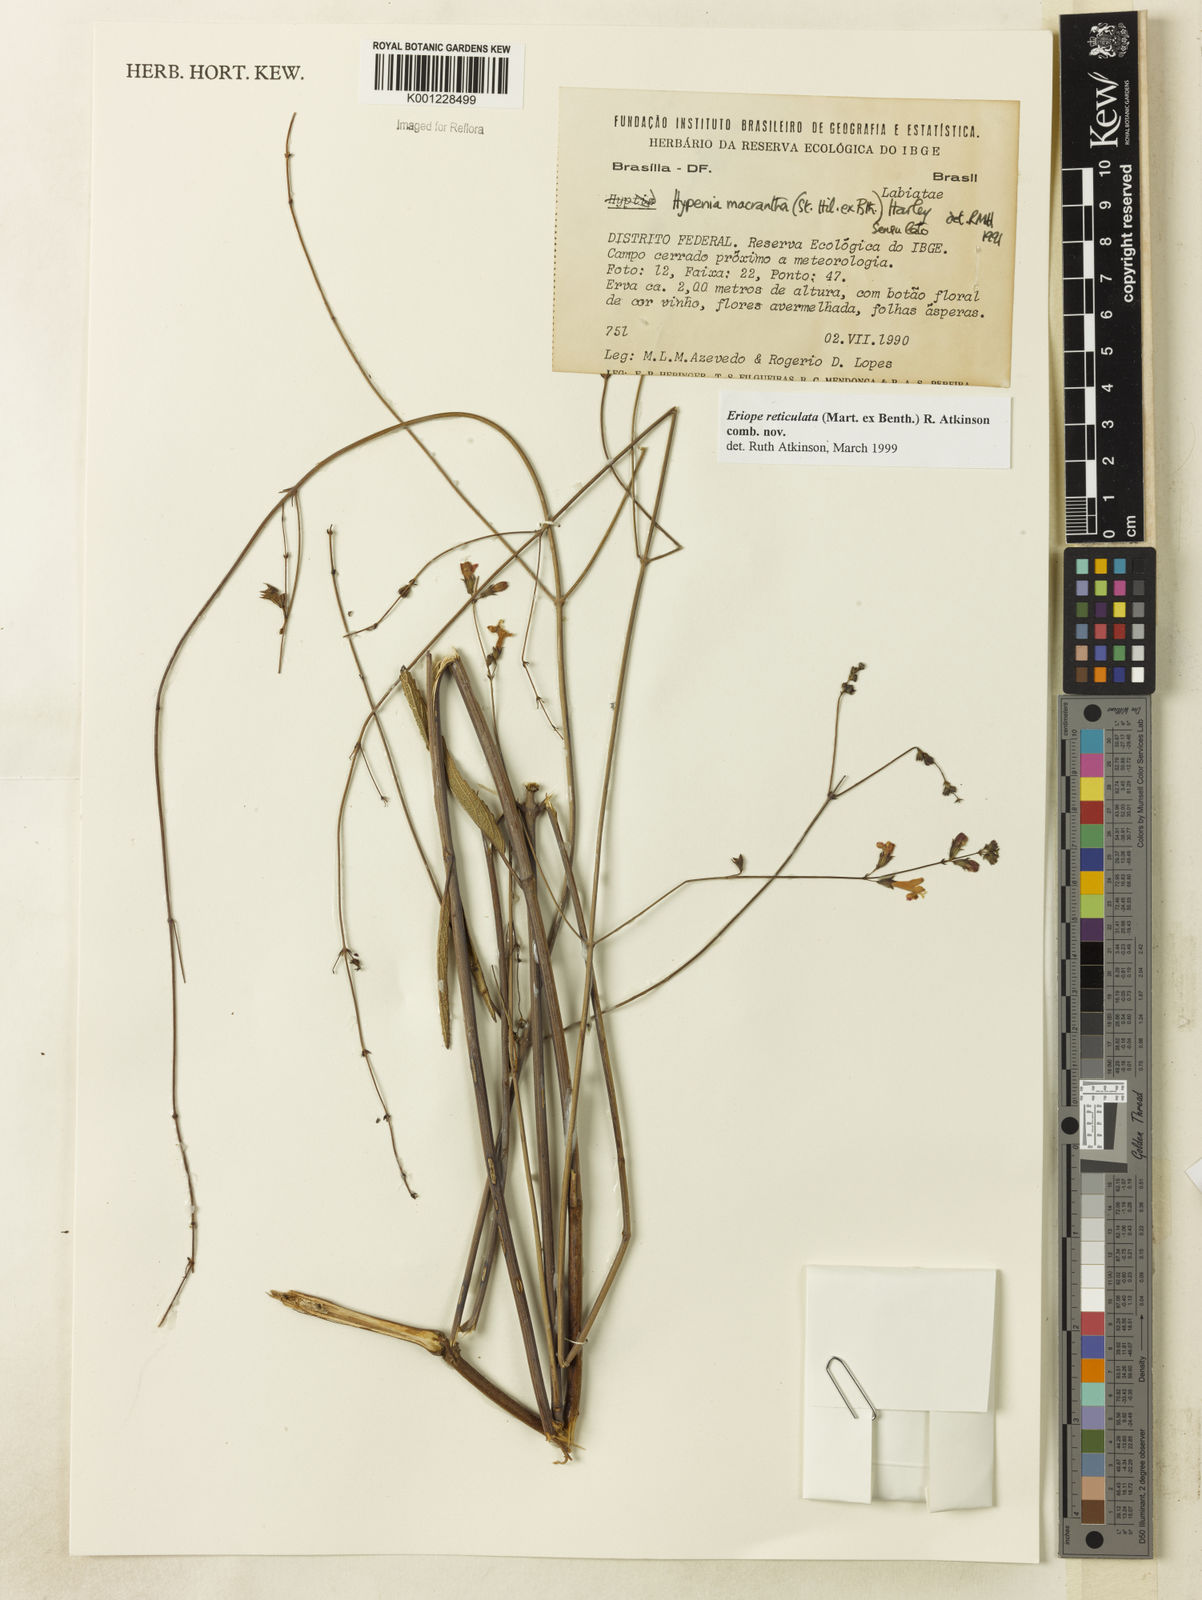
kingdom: Plantae
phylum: Tracheophyta
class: Magnoliopsida
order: Lamiales
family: Lamiaceae
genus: Hypenia
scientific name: Hypenia reticulata
